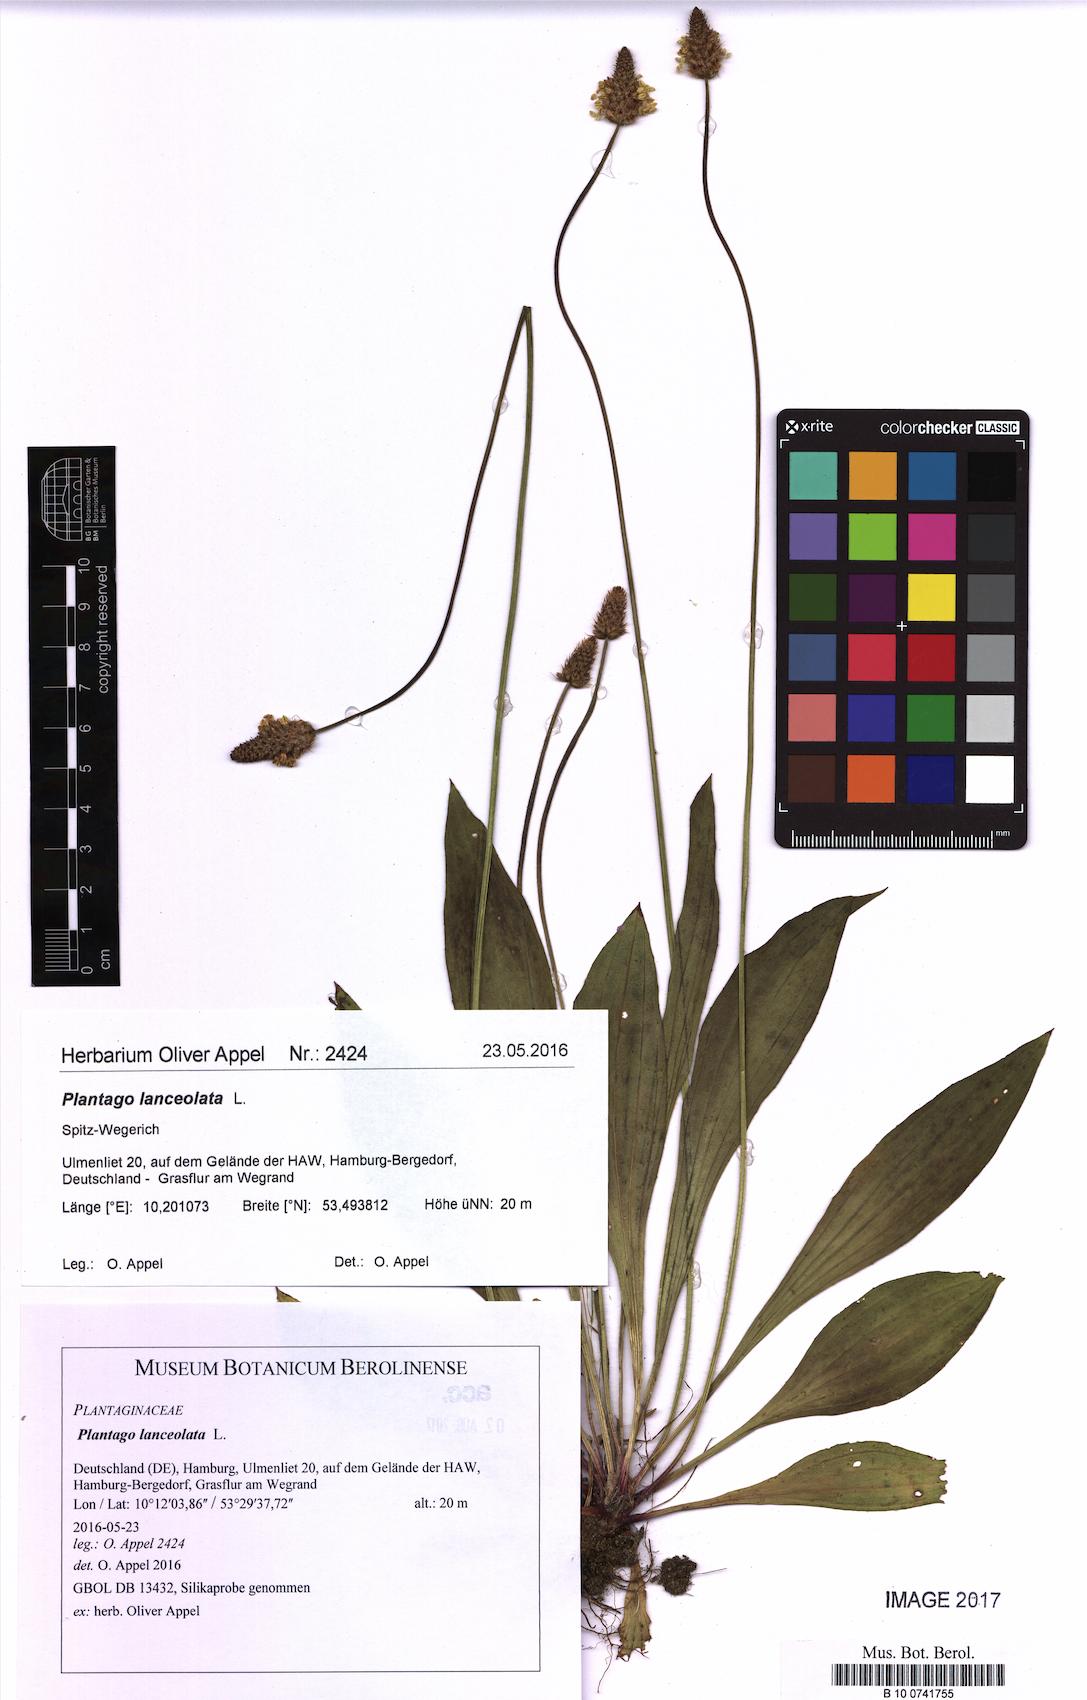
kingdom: Plantae
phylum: Tracheophyta
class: Magnoliopsida
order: Lamiales
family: Plantaginaceae
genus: Plantago
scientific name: Plantago lanceolata
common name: Ribwort plantain
